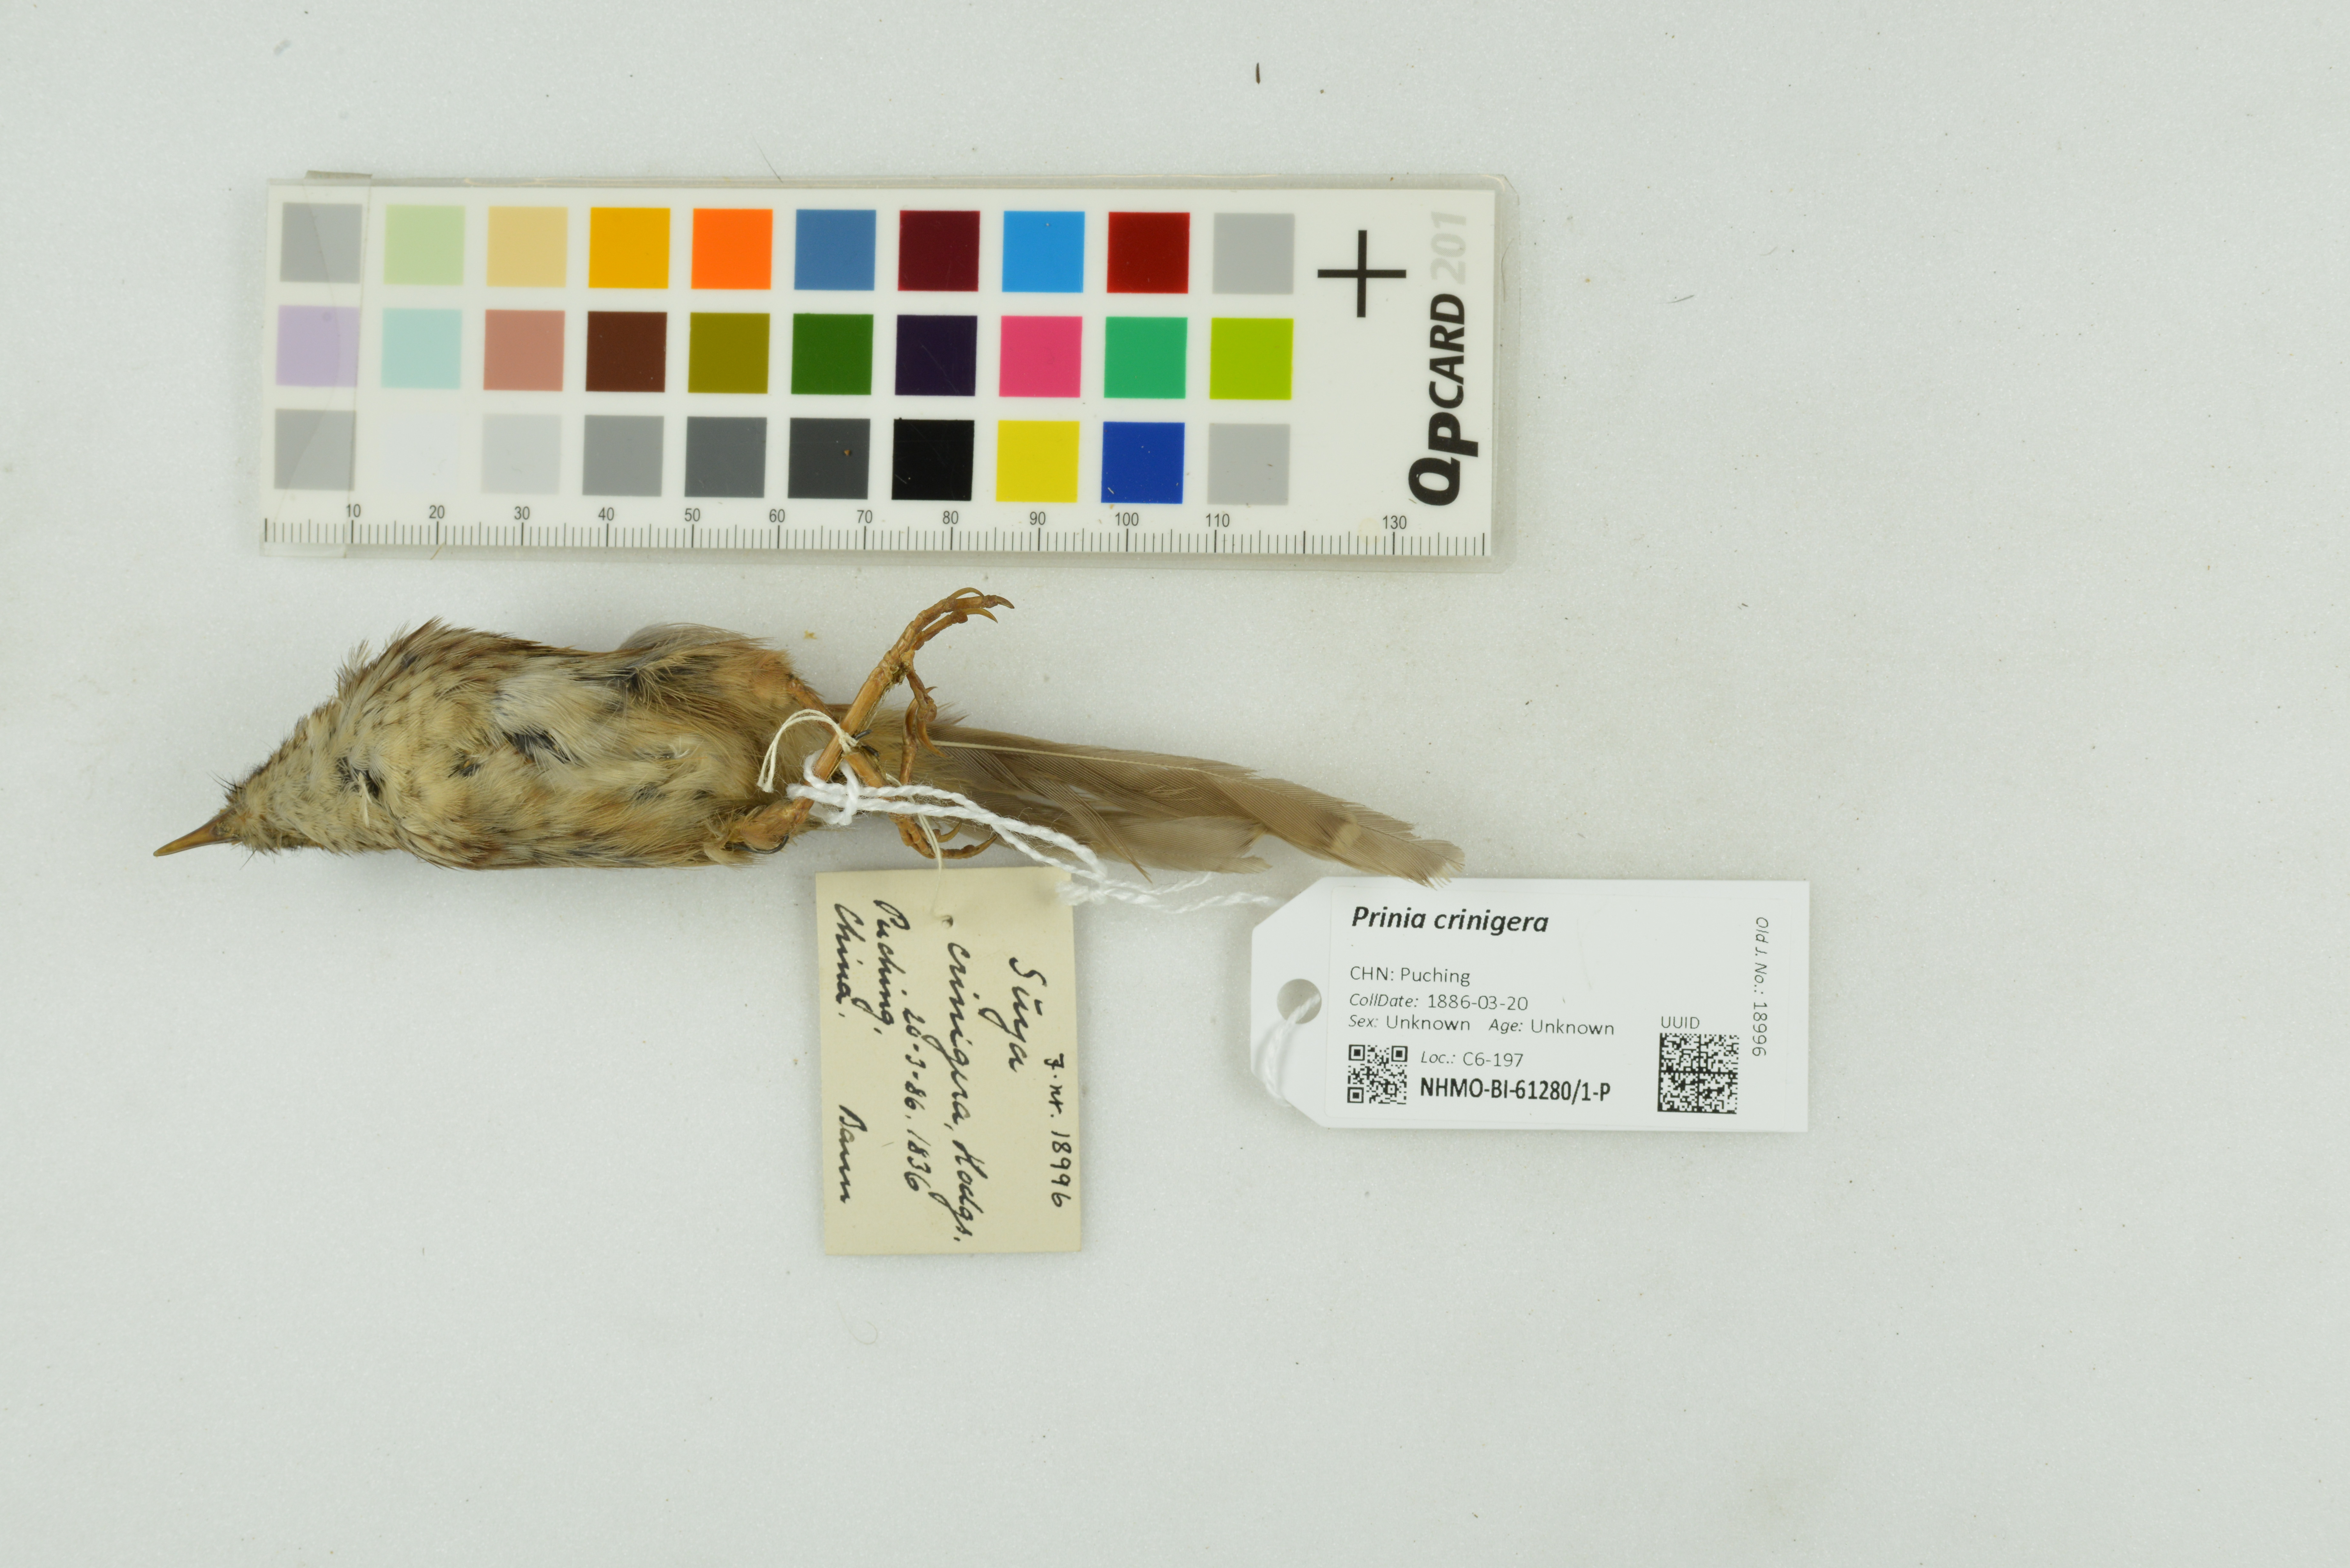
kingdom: Animalia
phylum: Chordata
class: Aves
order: Passeriformes
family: Cisticolidae
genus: Prinia
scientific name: Prinia crinigera
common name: Striated prinia
